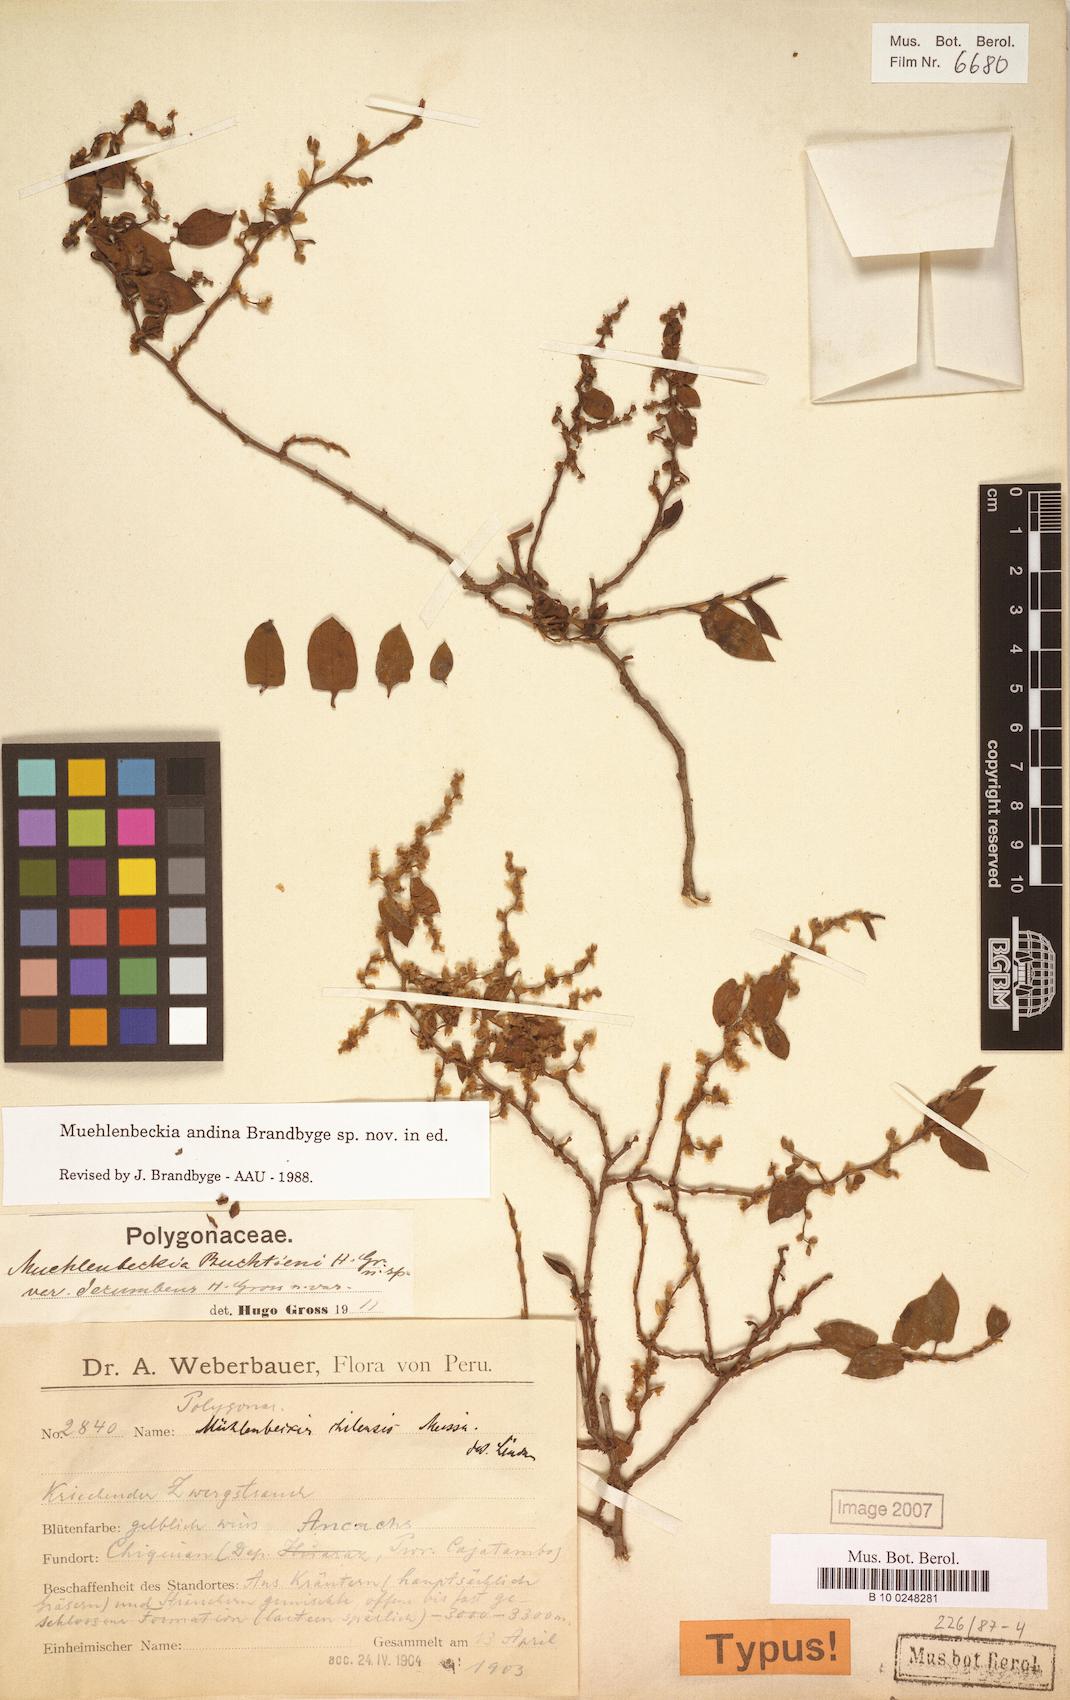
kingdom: Plantae
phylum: Tracheophyta
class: Magnoliopsida
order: Caryophyllales
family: Polygonaceae
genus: Muehlenbeckia
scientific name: Muehlenbeckia andina
